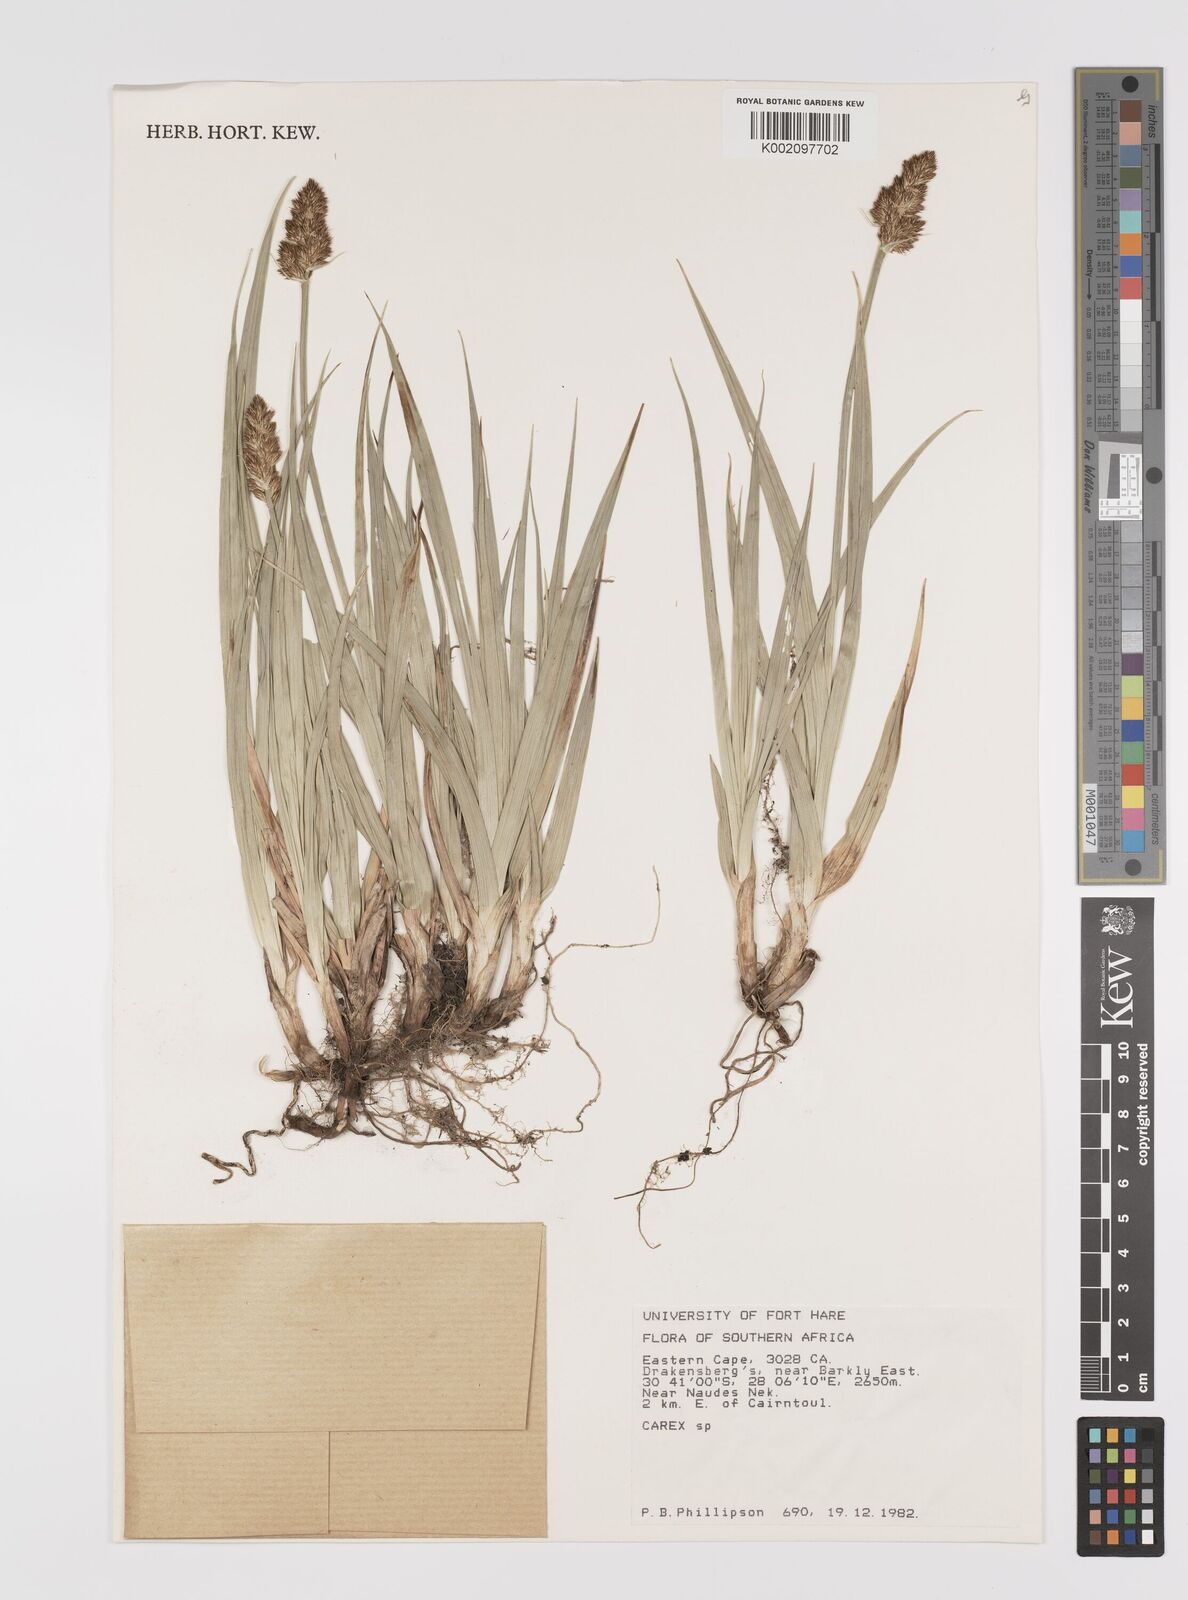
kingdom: Plantae
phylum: Tracheophyta
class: Liliopsida
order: Poales
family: Cyperaceae
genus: Carex
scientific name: Carex
